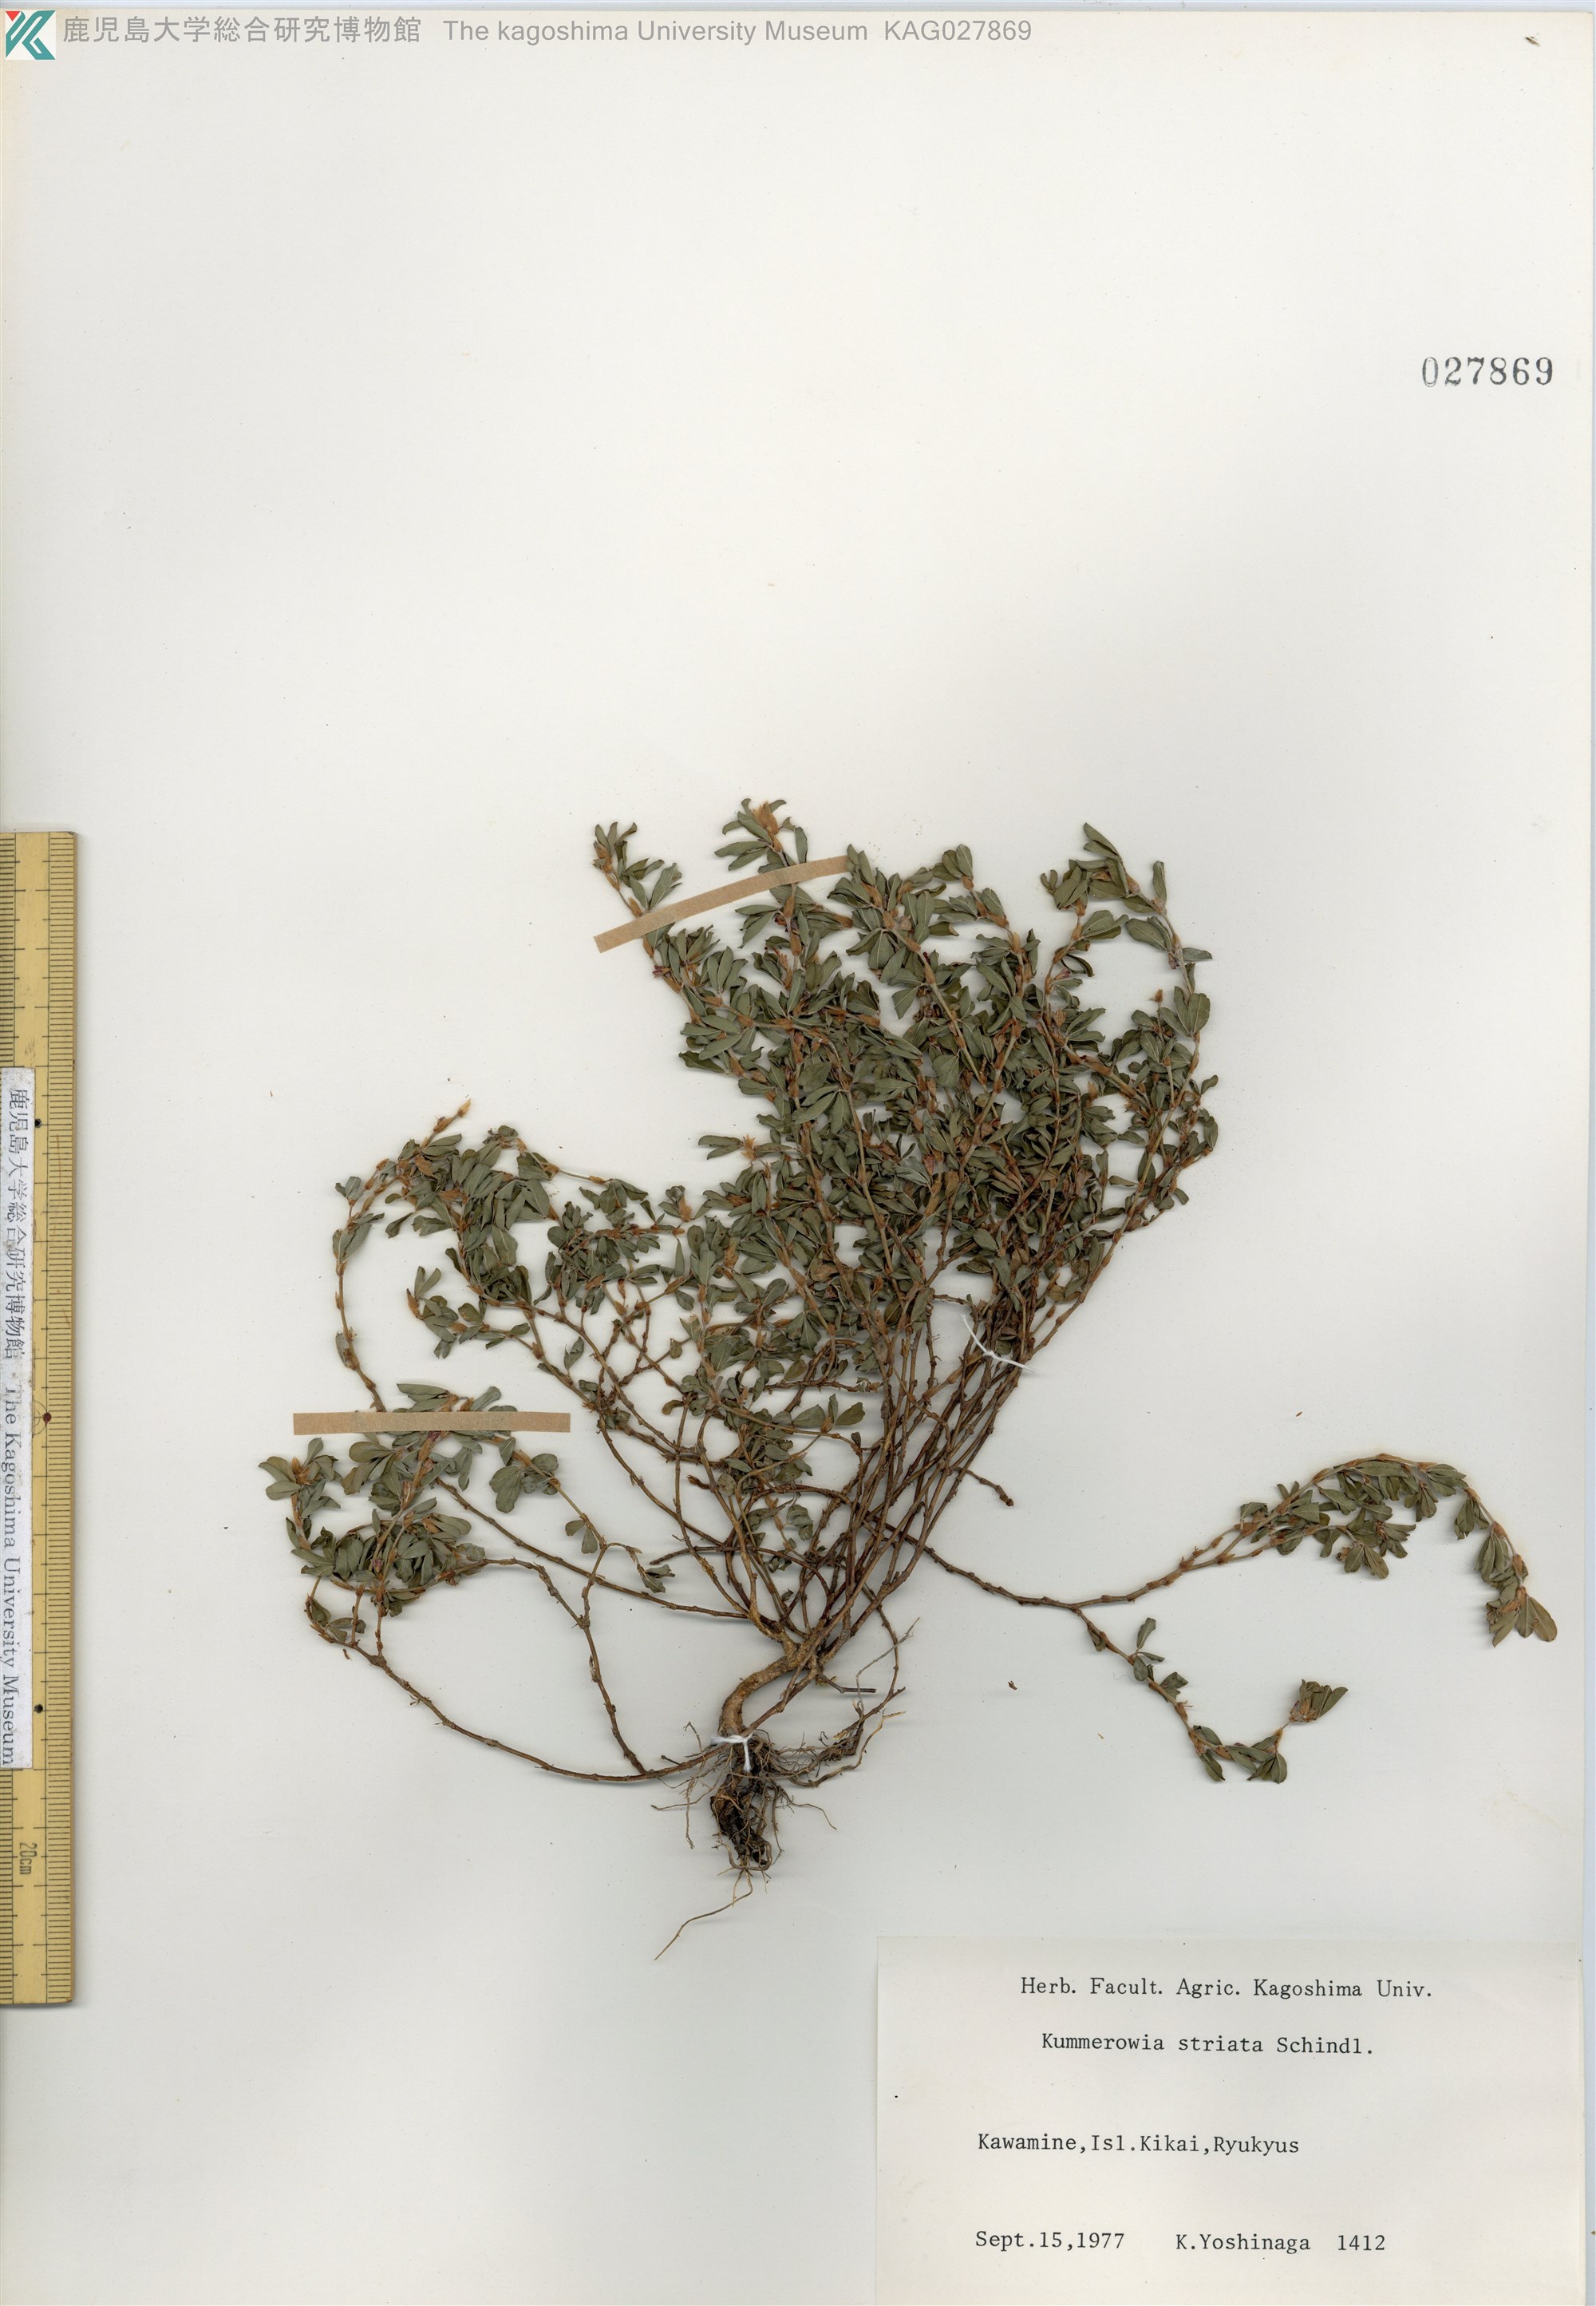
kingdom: Plantae
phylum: Tracheophyta
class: Magnoliopsida
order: Fabales
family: Fabaceae
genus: Kummerowia
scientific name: Kummerowia striata
